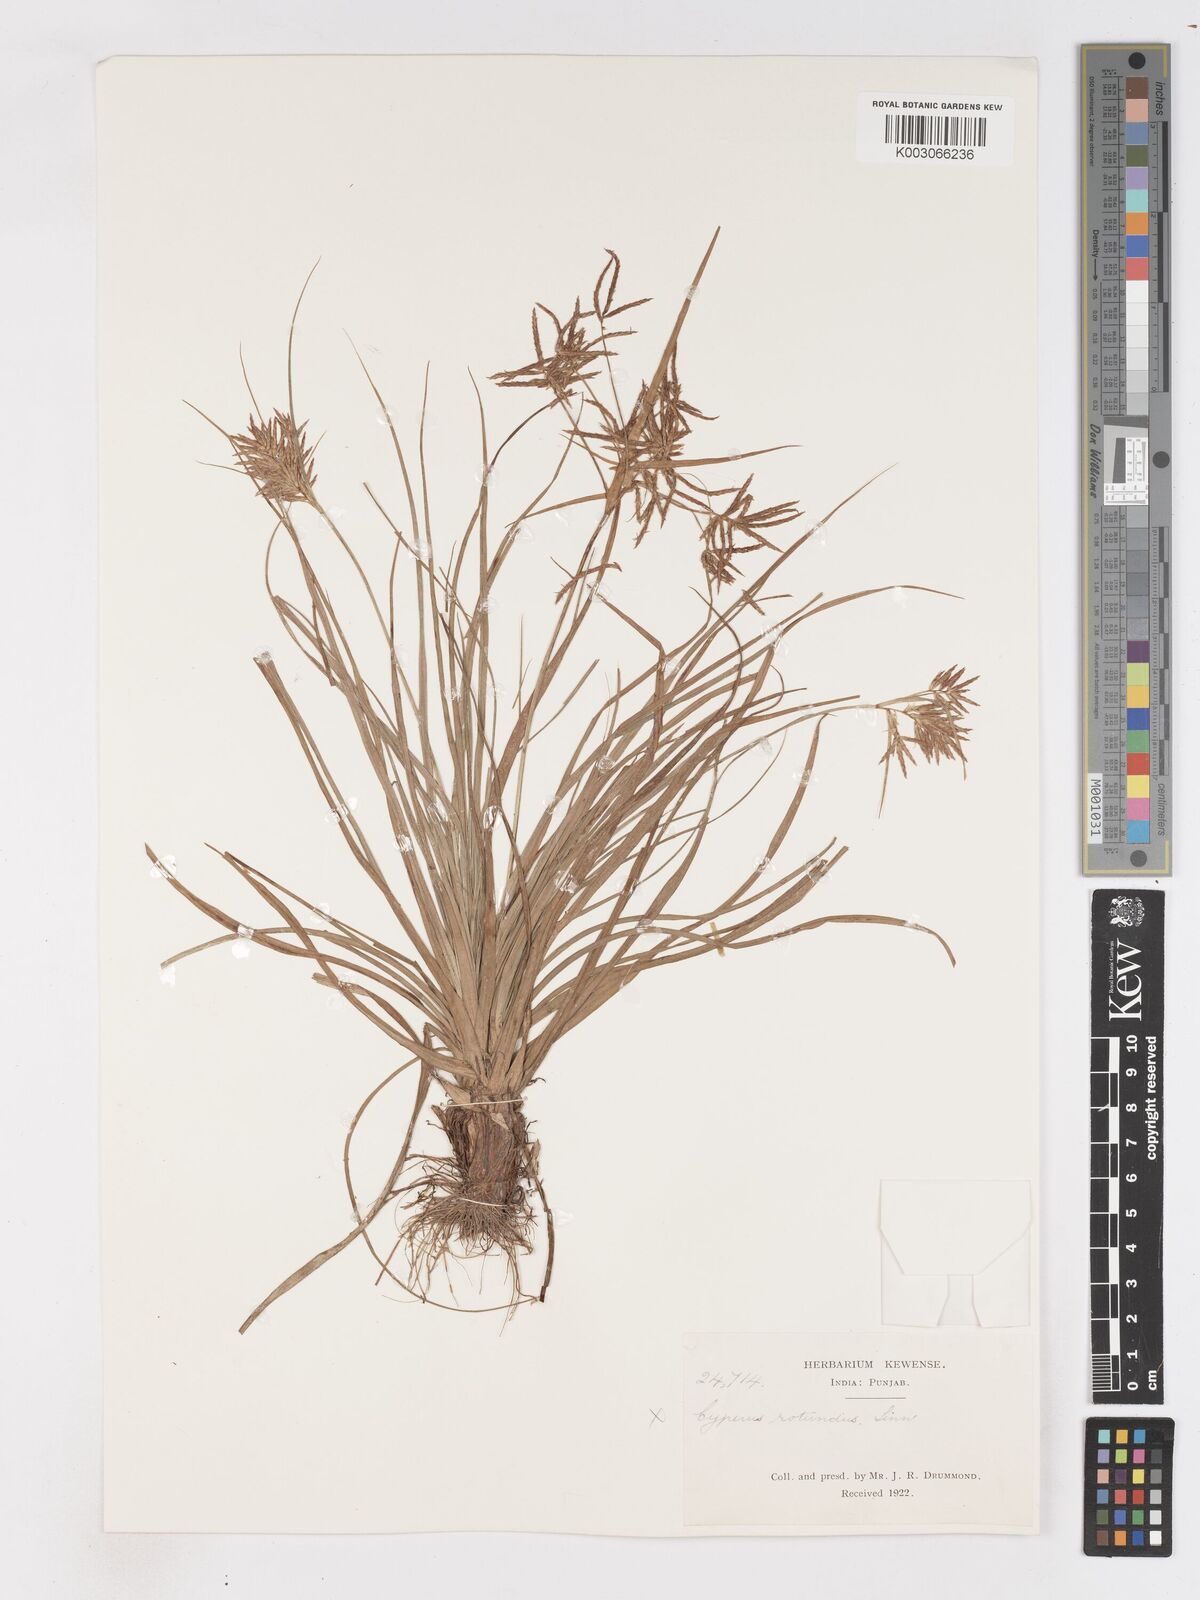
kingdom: Plantae
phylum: Tracheophyta
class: Liliopsida
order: Poales
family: Cyperaceae
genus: Cyperus
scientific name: Cyperus bulbosus
